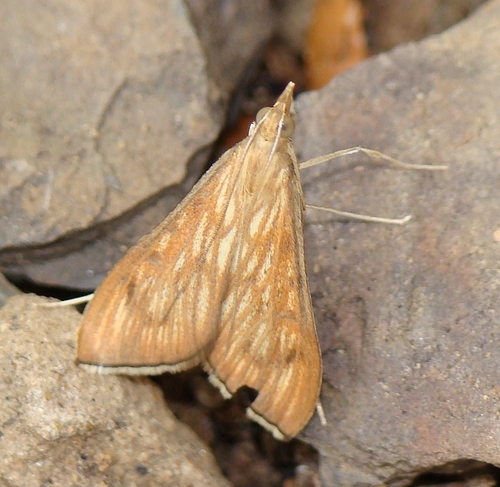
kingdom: Animalia
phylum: Arthropoda
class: Insecta
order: Lepidoptera
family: Crambidae
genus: Antigastra
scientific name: Antigastra catalaunalis
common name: Spanish dot
